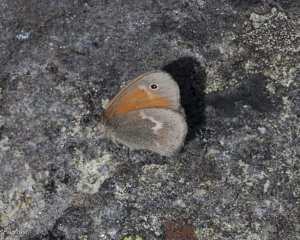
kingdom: Animalia
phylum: Arthropoda
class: Insecta
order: Lepidoptera
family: Nymphalidae
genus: Coenonympha
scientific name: Coenonympha tullia
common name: Large Heath
